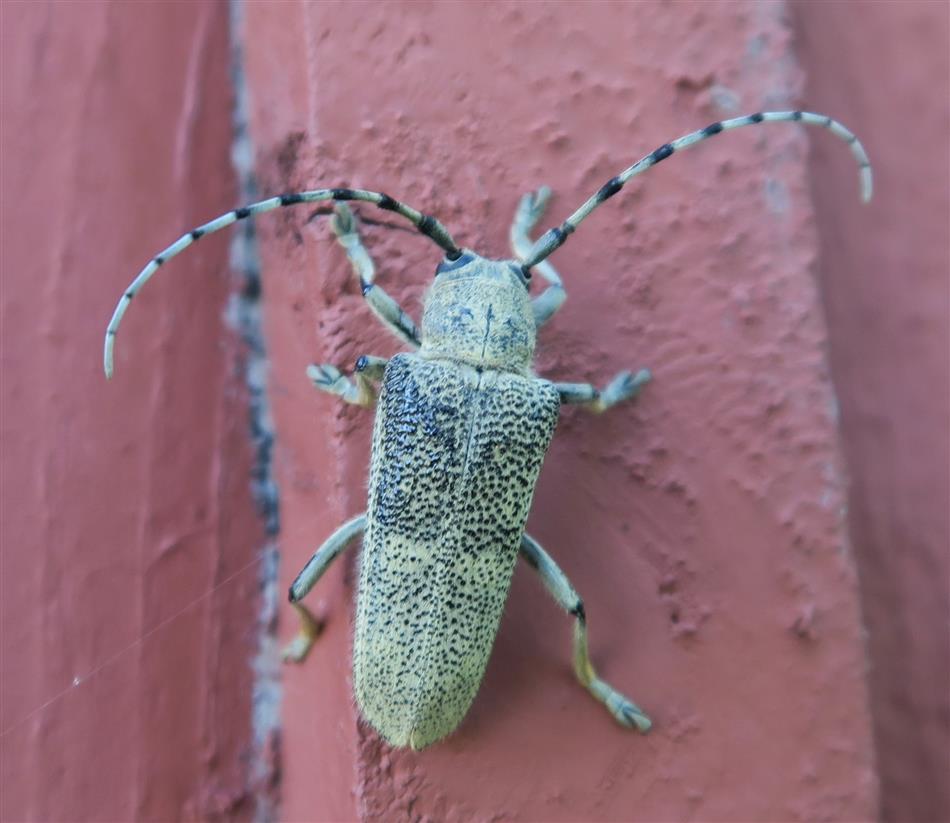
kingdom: Animalia
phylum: Arthropoda
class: Insecta
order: Coleoptera
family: Cerambycidae
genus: Saperda
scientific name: Saperda carcharias
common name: Poplar borer
